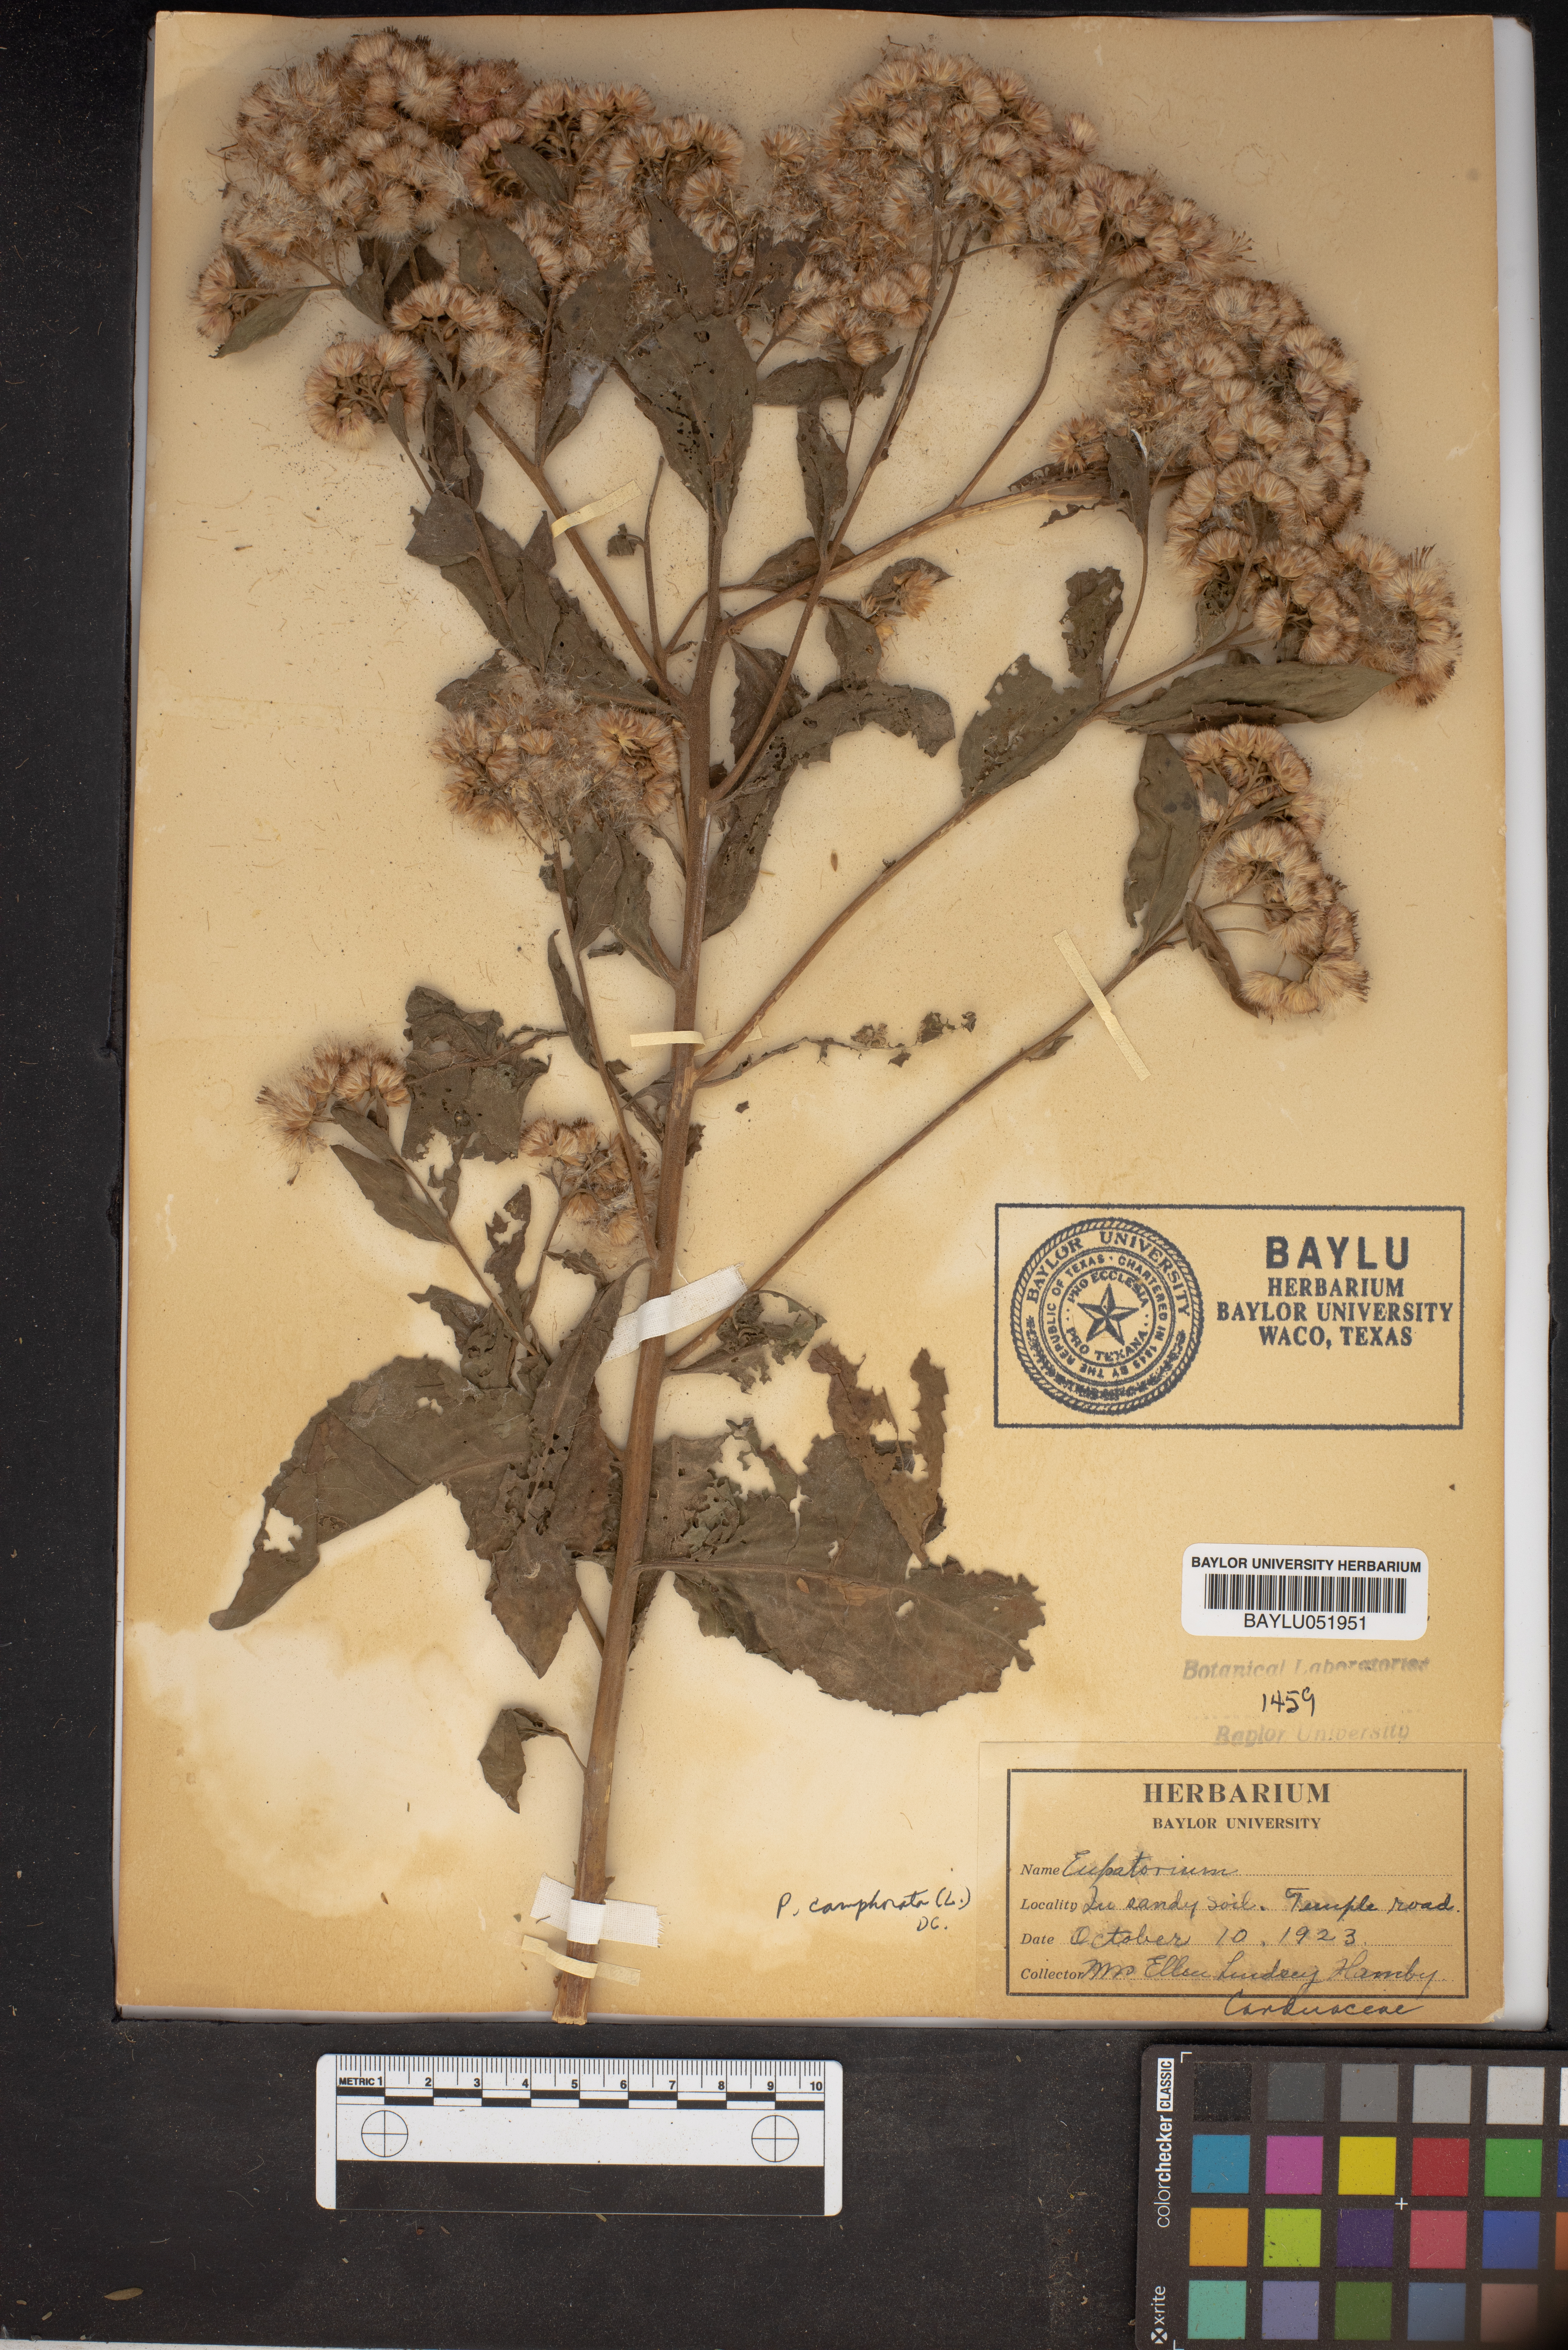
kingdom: Plantae
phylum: Tracheophyta
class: Magnoliopsida
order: Asterales
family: Asteraceae
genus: Eupatoriastrum
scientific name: Eupatoriastrum
